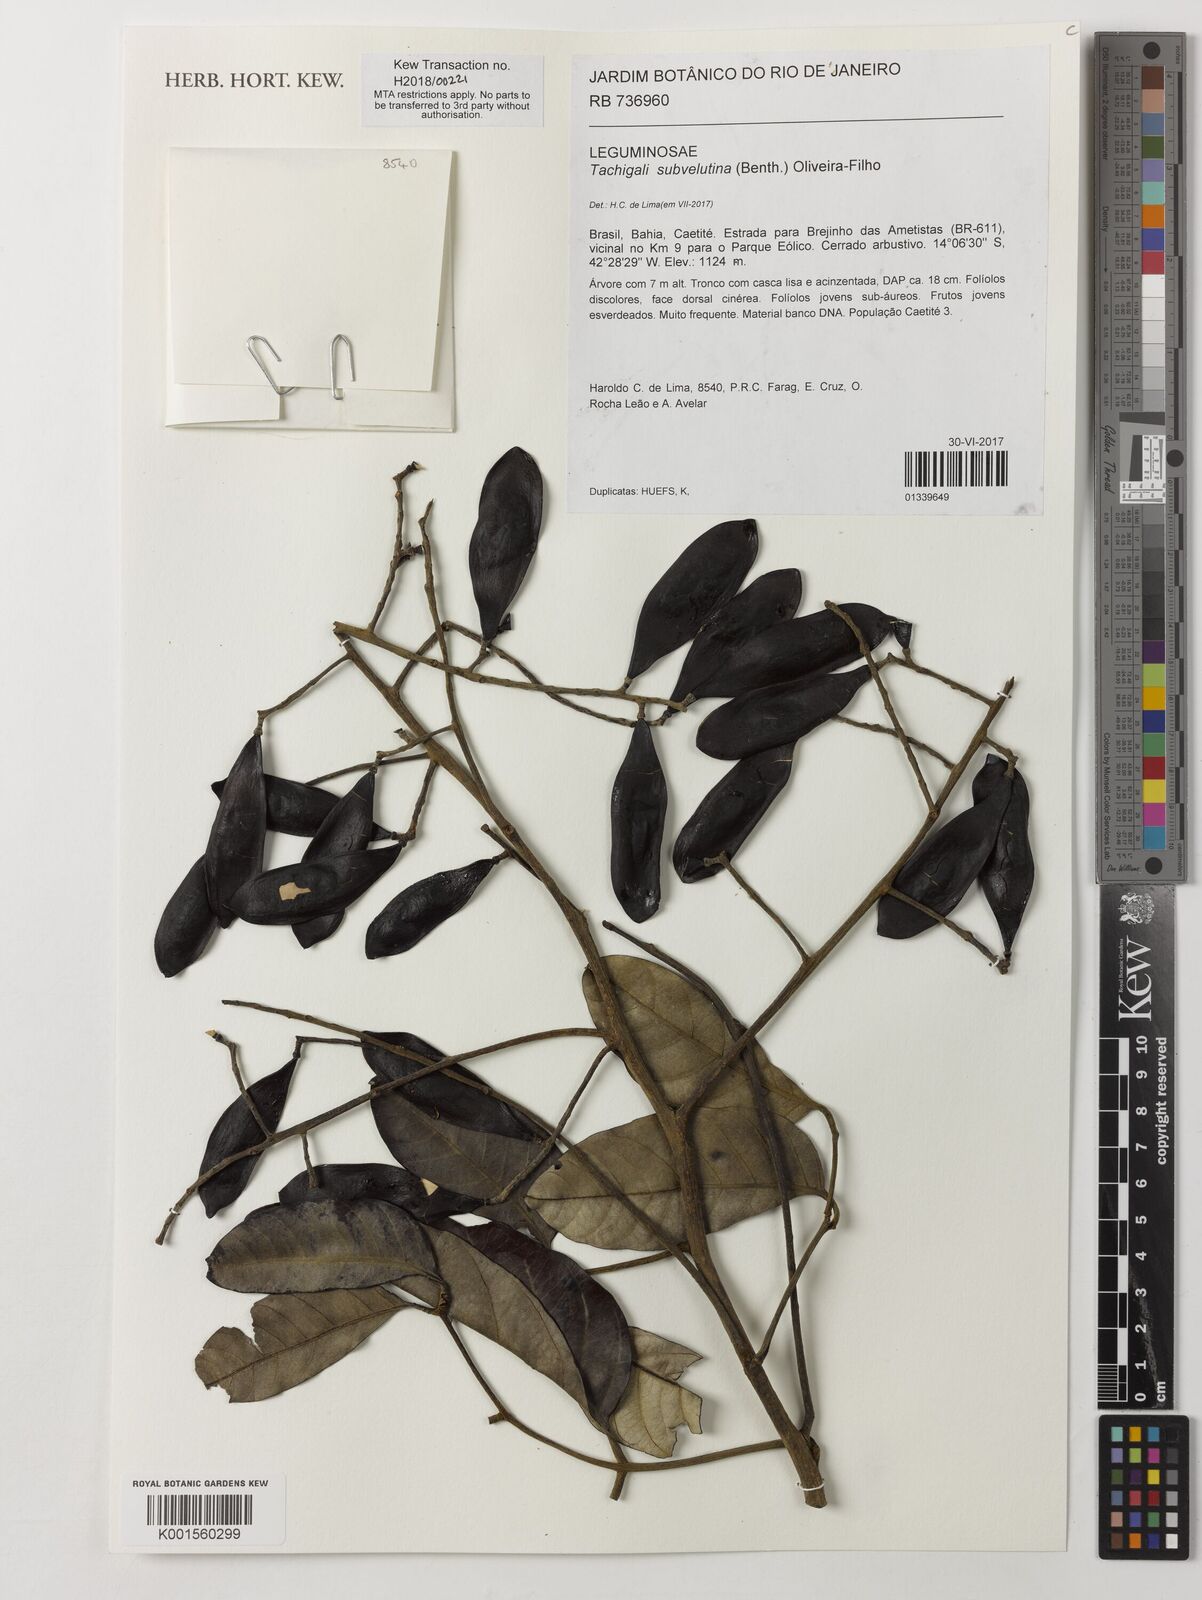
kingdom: Plantae
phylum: Tracheophyta
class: Magnoliopsida
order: Fabales
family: Fabaceae
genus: Tachigali
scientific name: Tachigali subvelutina
